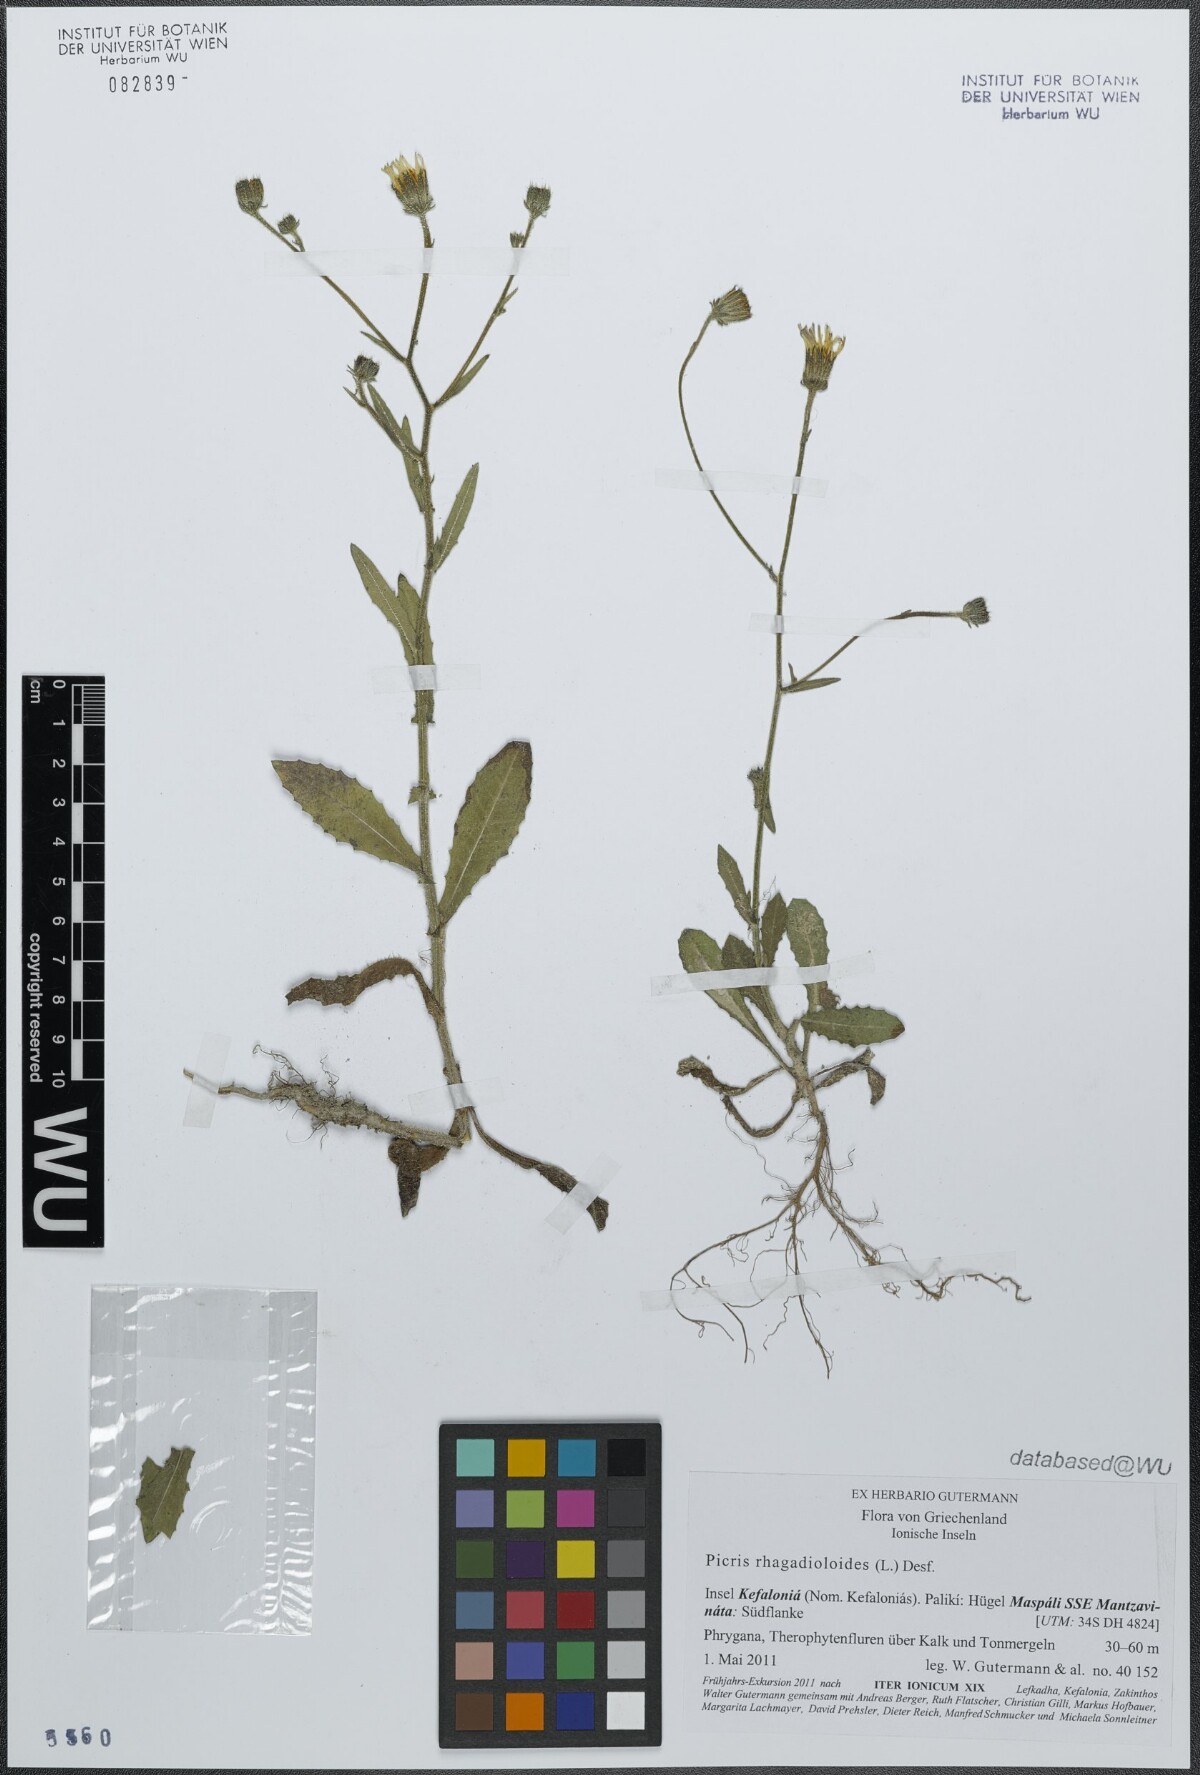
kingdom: Plantae
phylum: Tracheophyta
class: Magnoliopsida
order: Asterales
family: Asteraceae
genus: Picris
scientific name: Picris rhagadioloides
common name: Oxtongue
